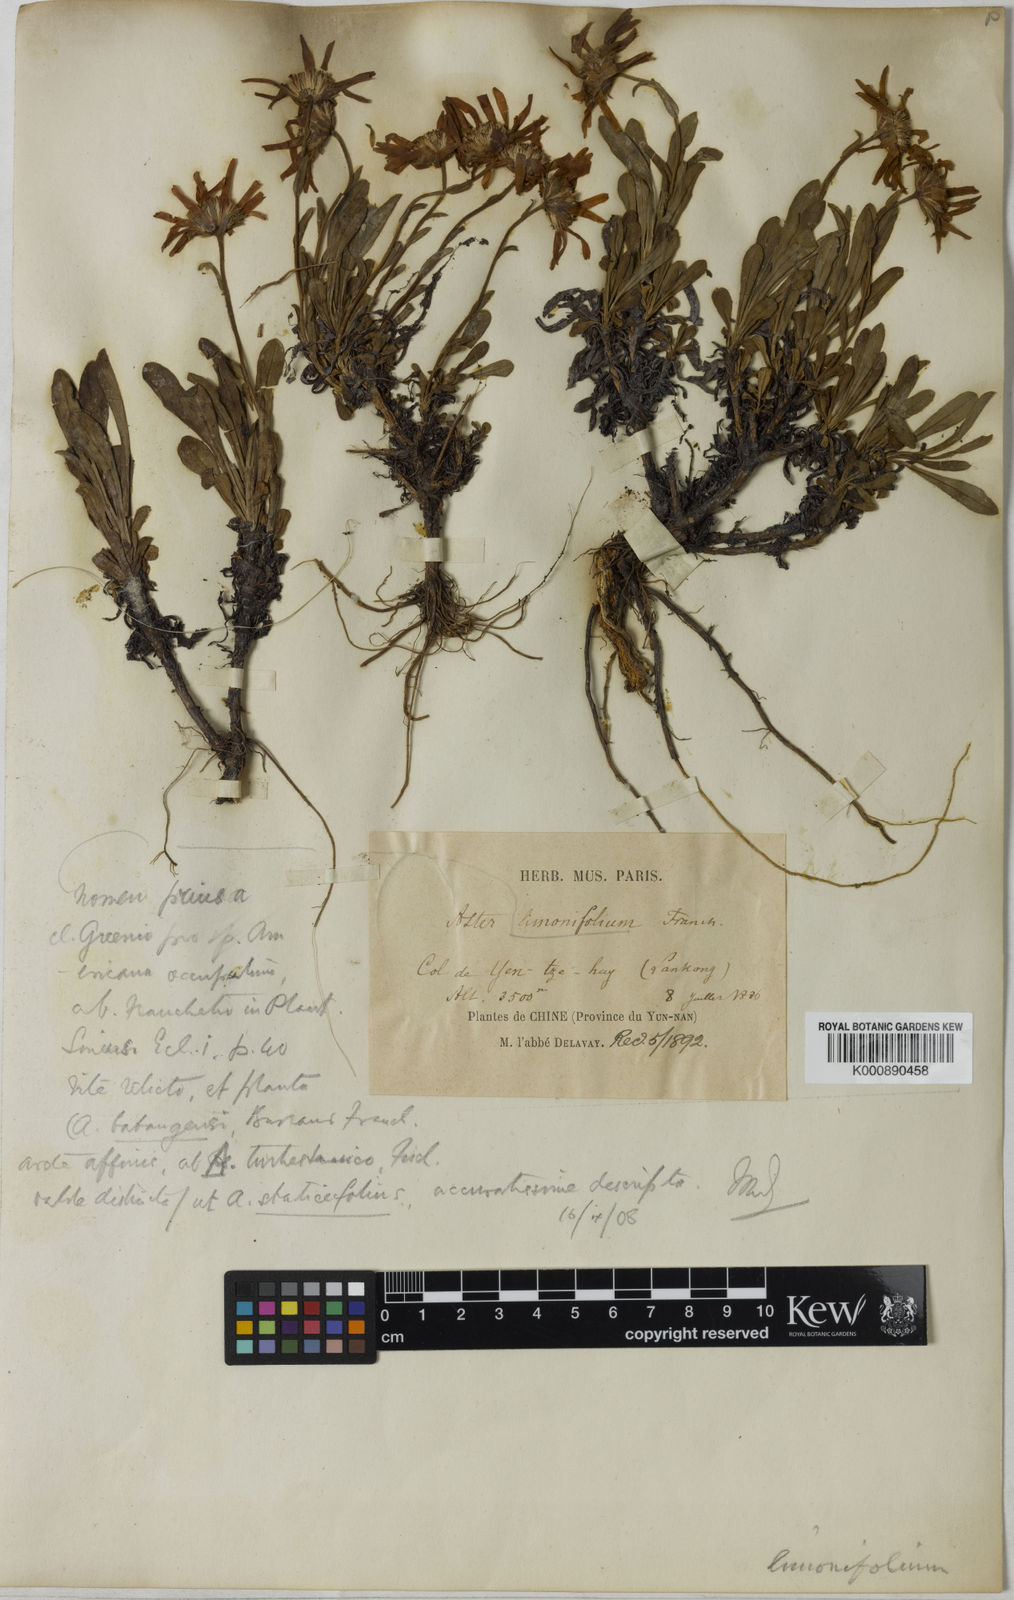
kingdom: Plantae
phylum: Tracheophyta
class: Magnoliopsida
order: Asterales
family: Asteraceae
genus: Geothamnus
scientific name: Geothamnus batangensis
